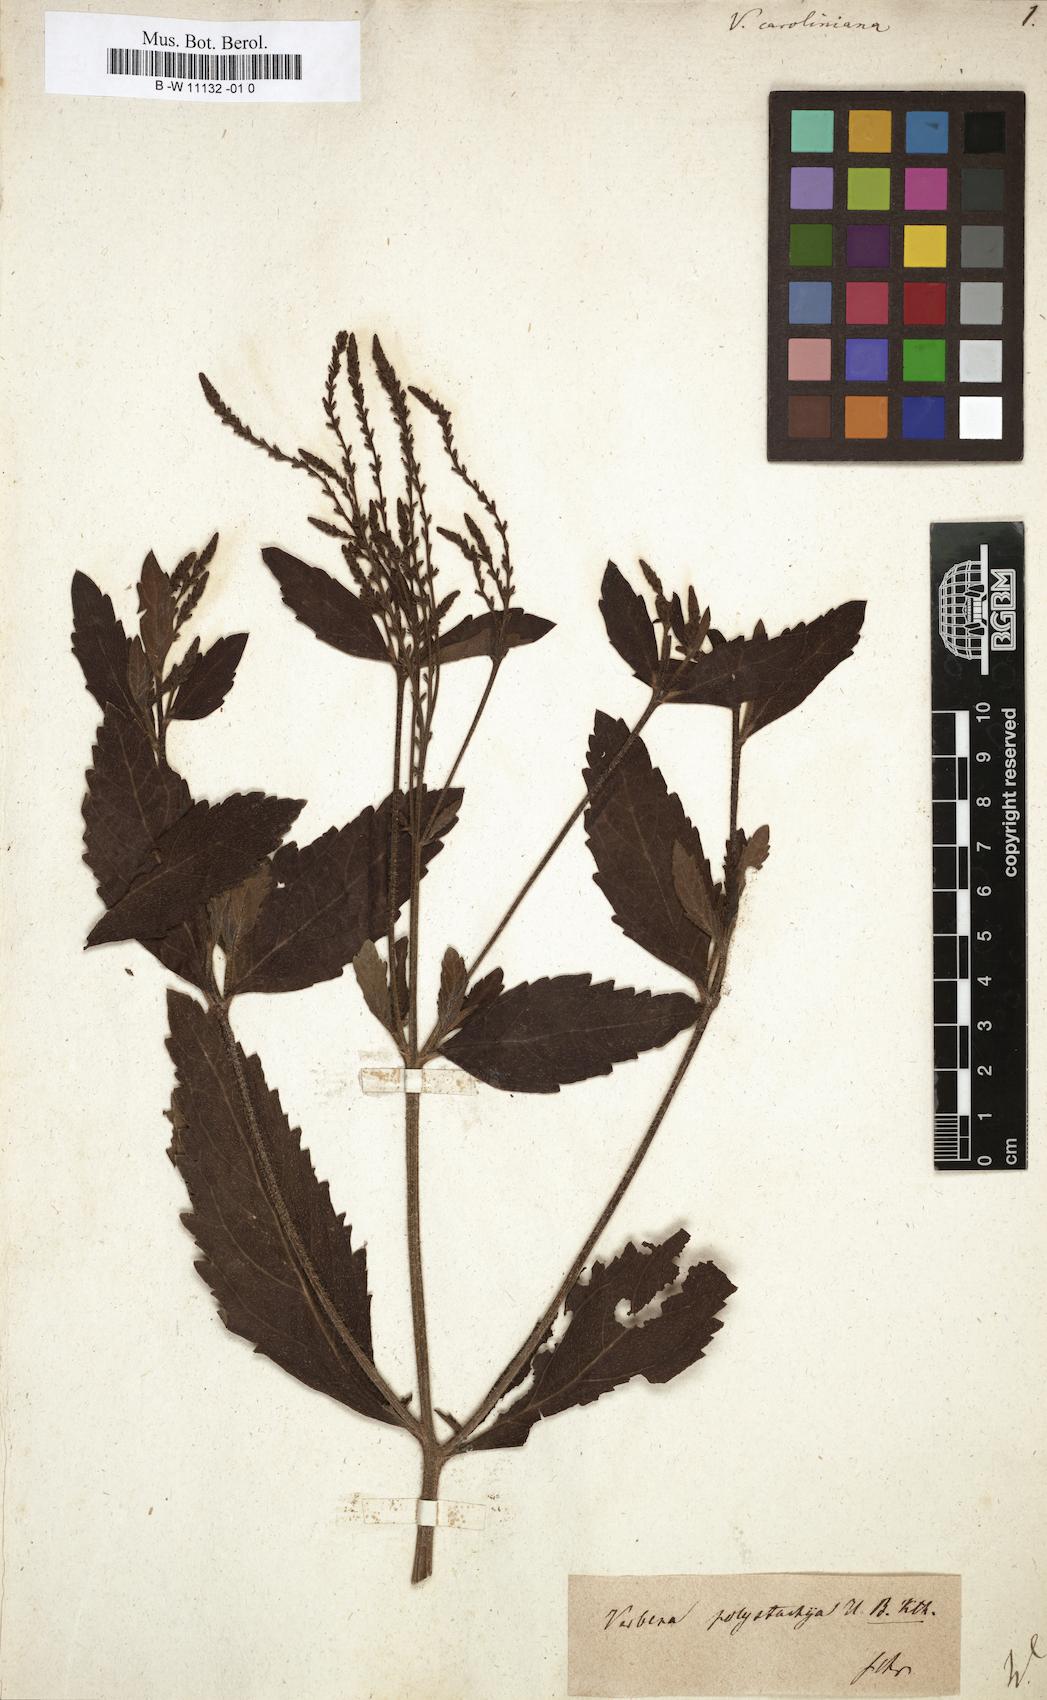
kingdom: Plantae
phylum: Tracheophyta
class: Magnoliopsida
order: Lamiales
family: Verbenaceae
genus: Verbena
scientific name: Verbena caroliniana
